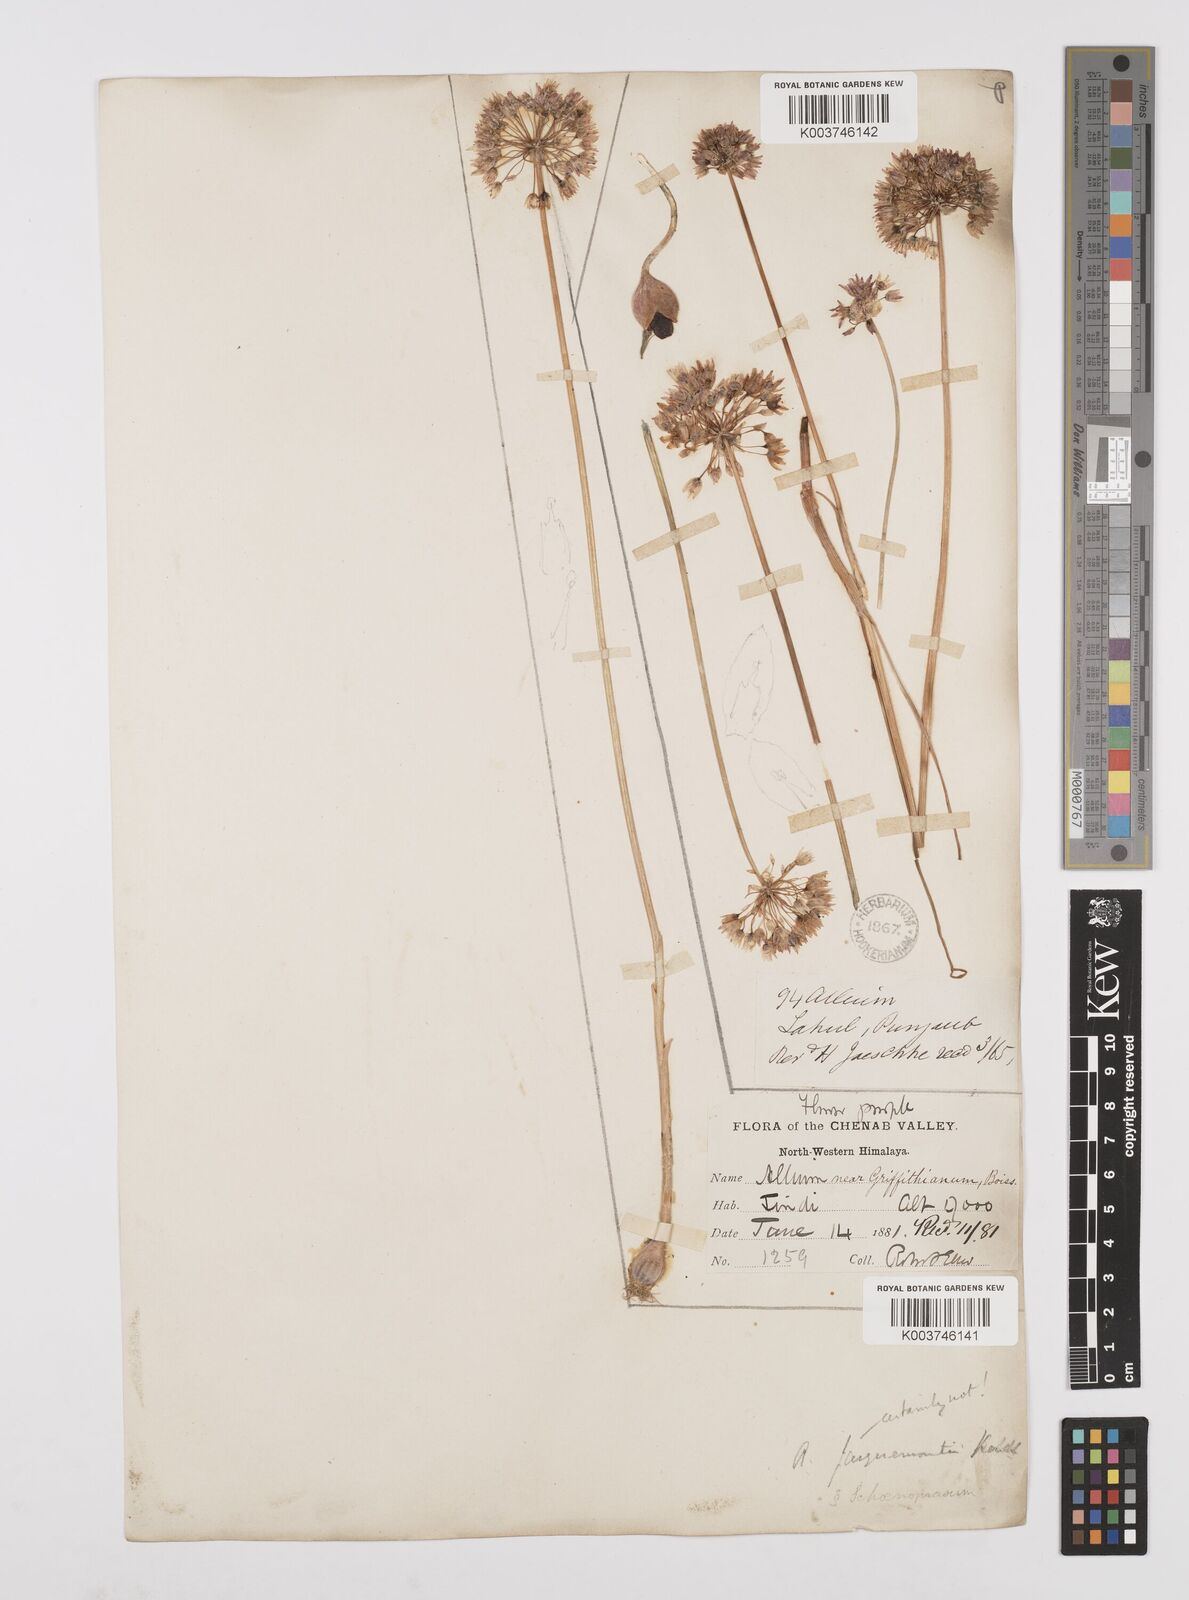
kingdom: Plantae
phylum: Tracheophyta
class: Liliopsida
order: Asparagales
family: Amaryllidaceae
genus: Allium
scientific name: Allium caeruleum
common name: Blue-of-the-heavens
